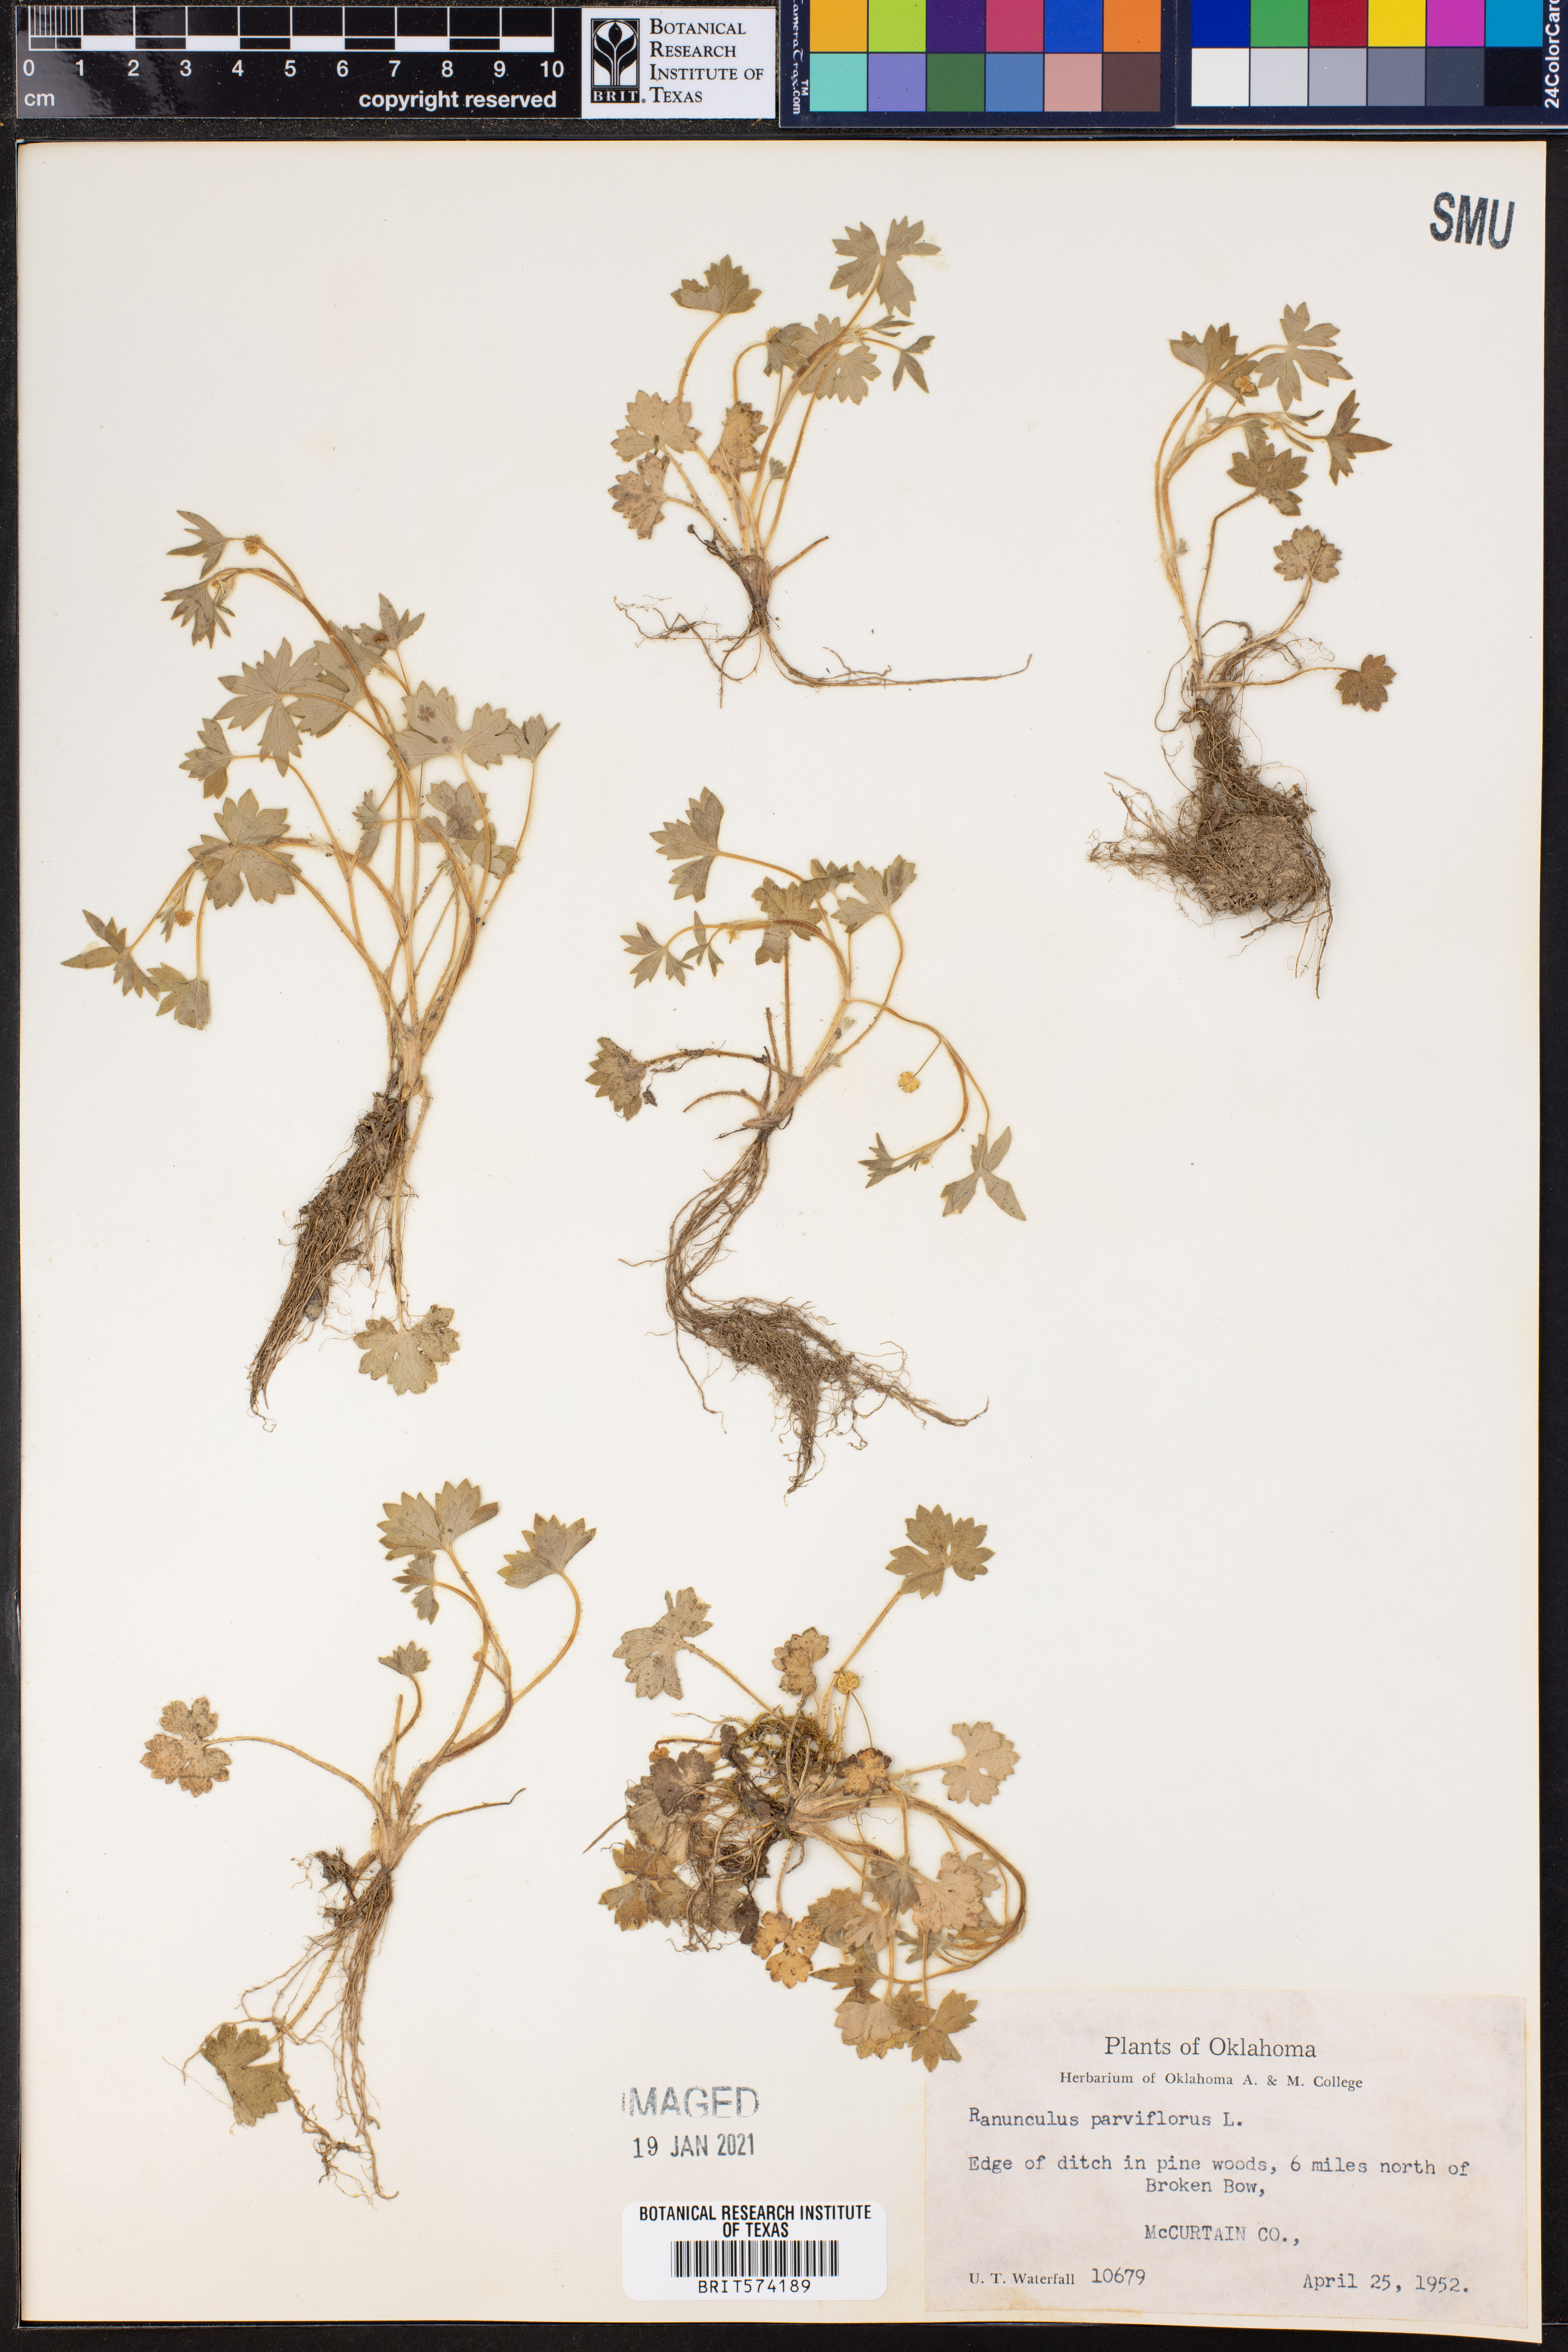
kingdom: Plantae
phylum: Tracheophyta
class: Magnoliopsida
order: Ranunculales
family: Ranunculaceae
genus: Ranunculus
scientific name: Ranunculus parviflorus
